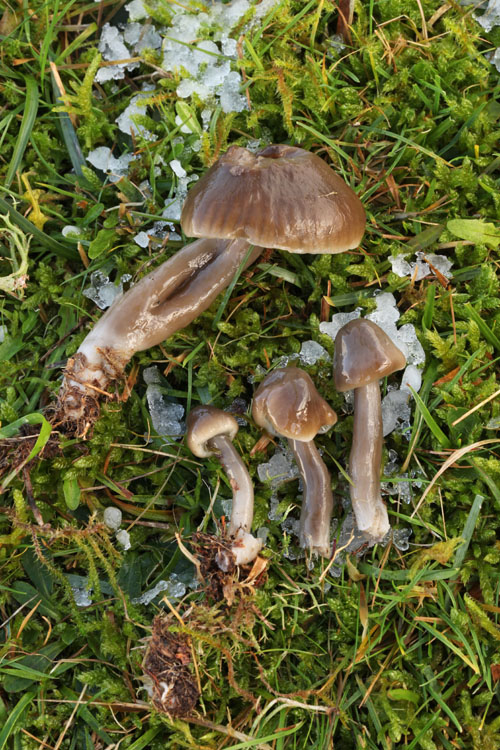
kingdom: Fungi
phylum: Basidiomycota
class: Agaricomycetes
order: Agaricales
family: Hygrophoraceae
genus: Gliophorus
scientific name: Gliophorus irrigatus
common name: slimet vokshat
